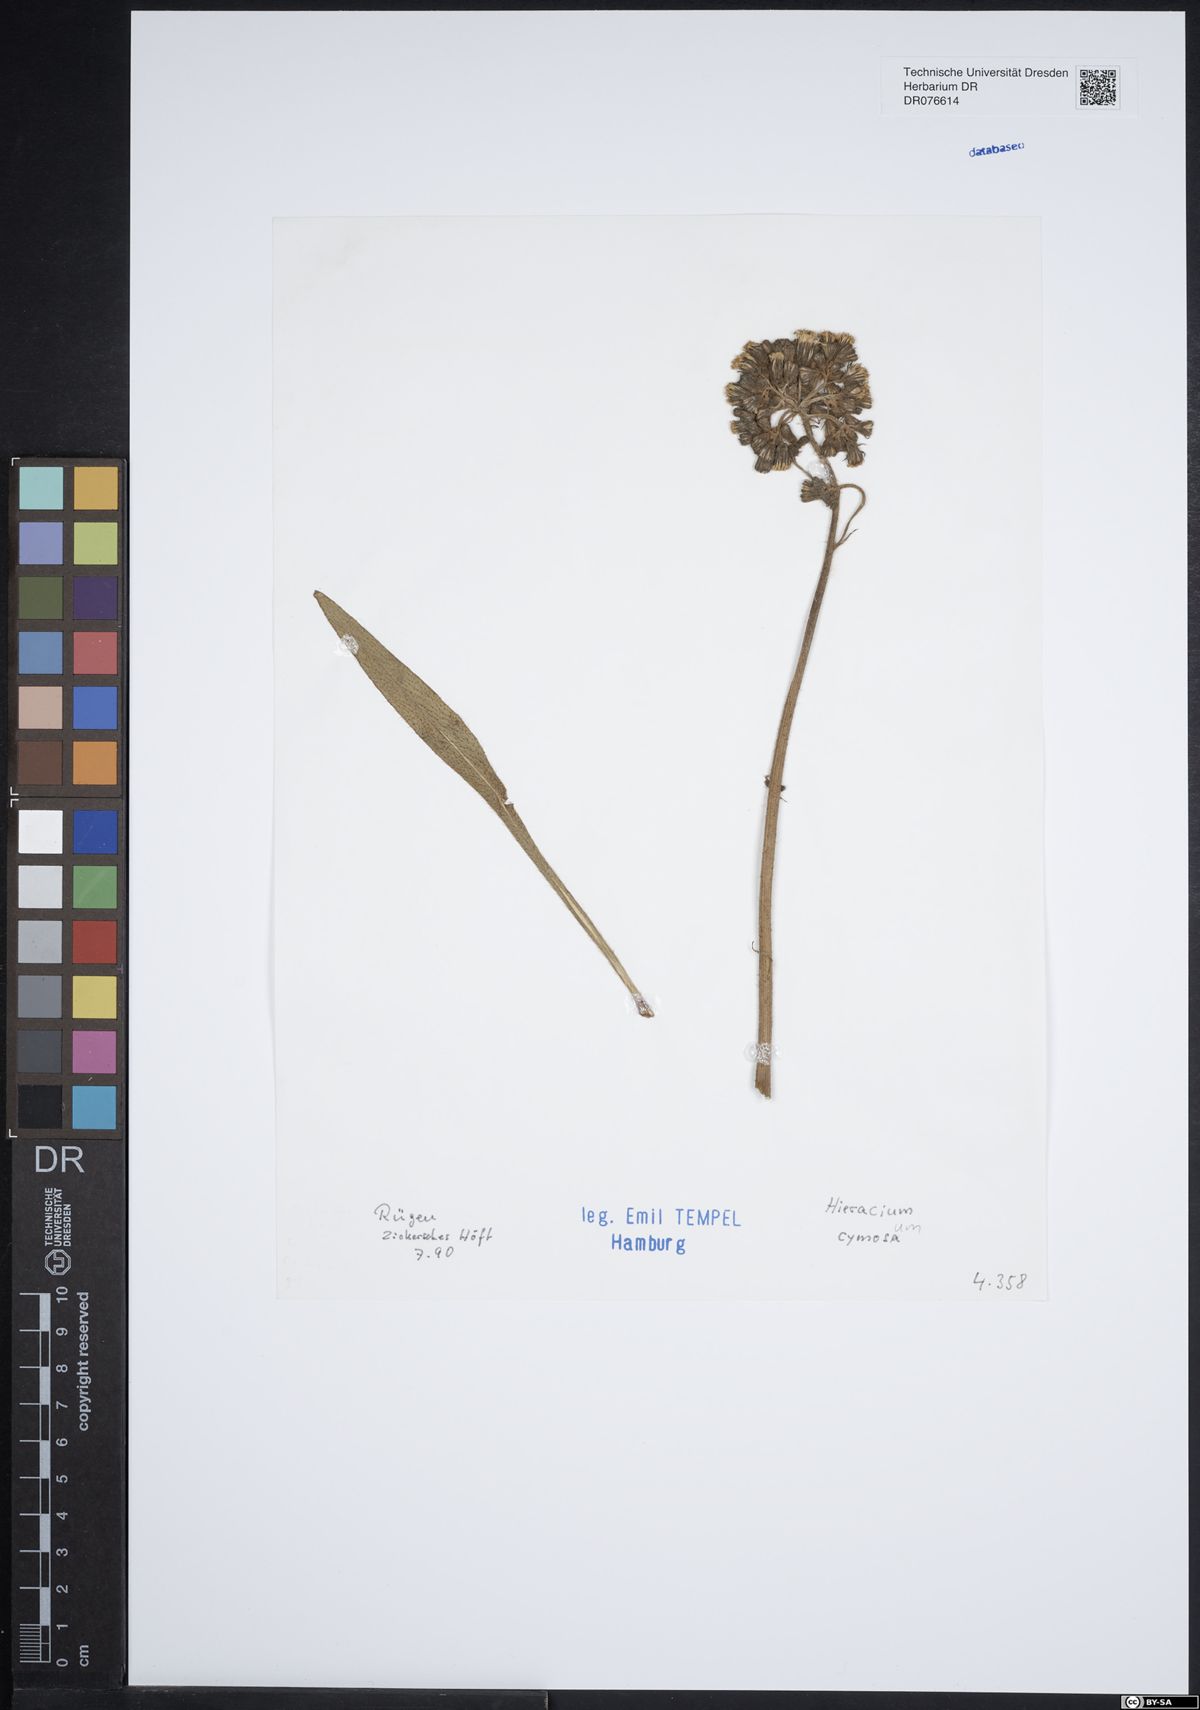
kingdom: Plantae
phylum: Tracheophyta
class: Magnoliopsida
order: Asterales
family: Asteraceae
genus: Pilosella
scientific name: Pilosella cymosa
